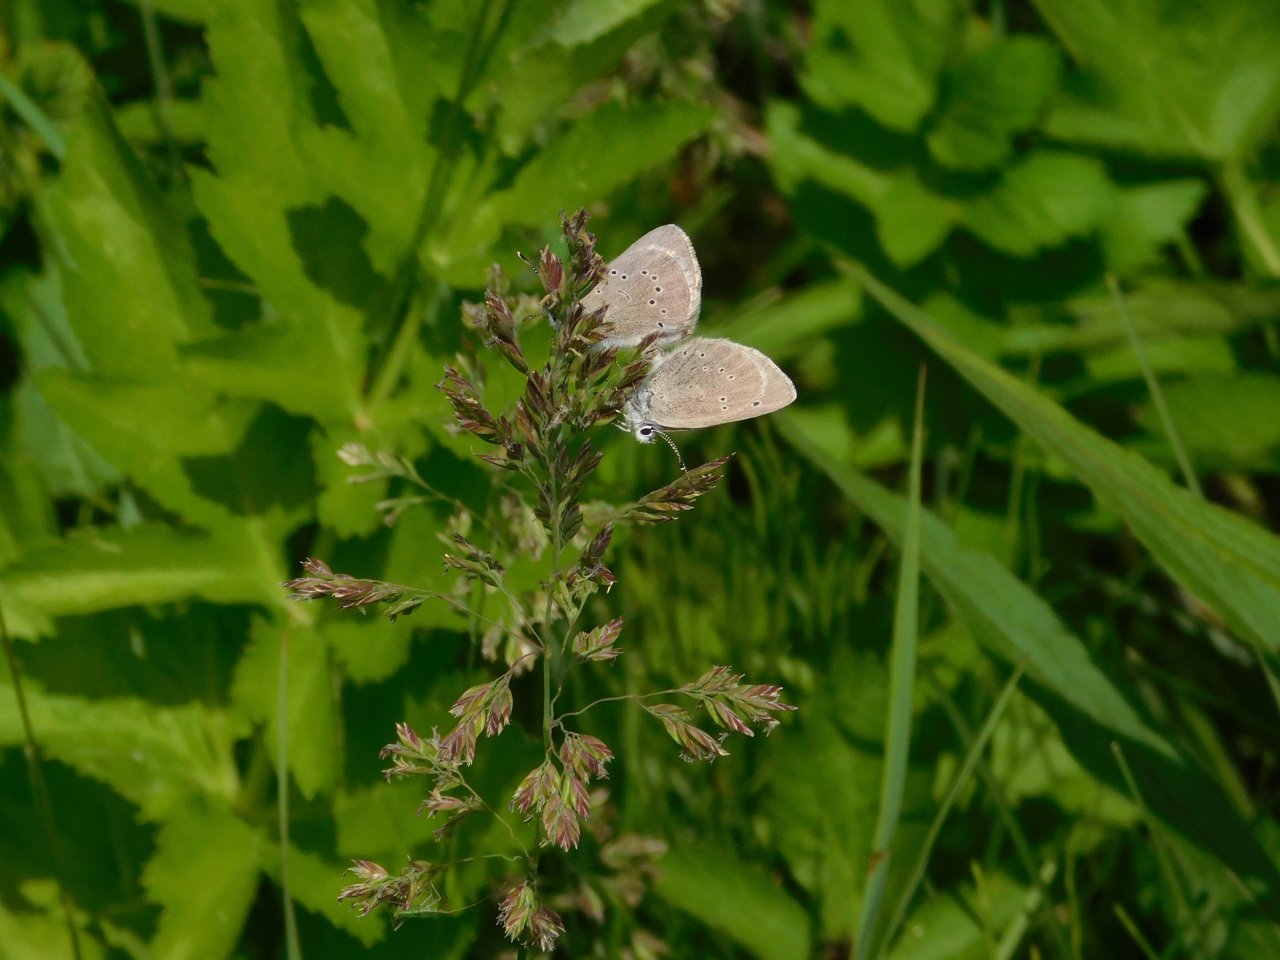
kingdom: Animalia
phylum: Arthropoda
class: Insecta
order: Lepidoptera
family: Lycaenidae
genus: Glaucopsyche
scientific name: Glaucopsyche lygdamus
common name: Silvery Blue
